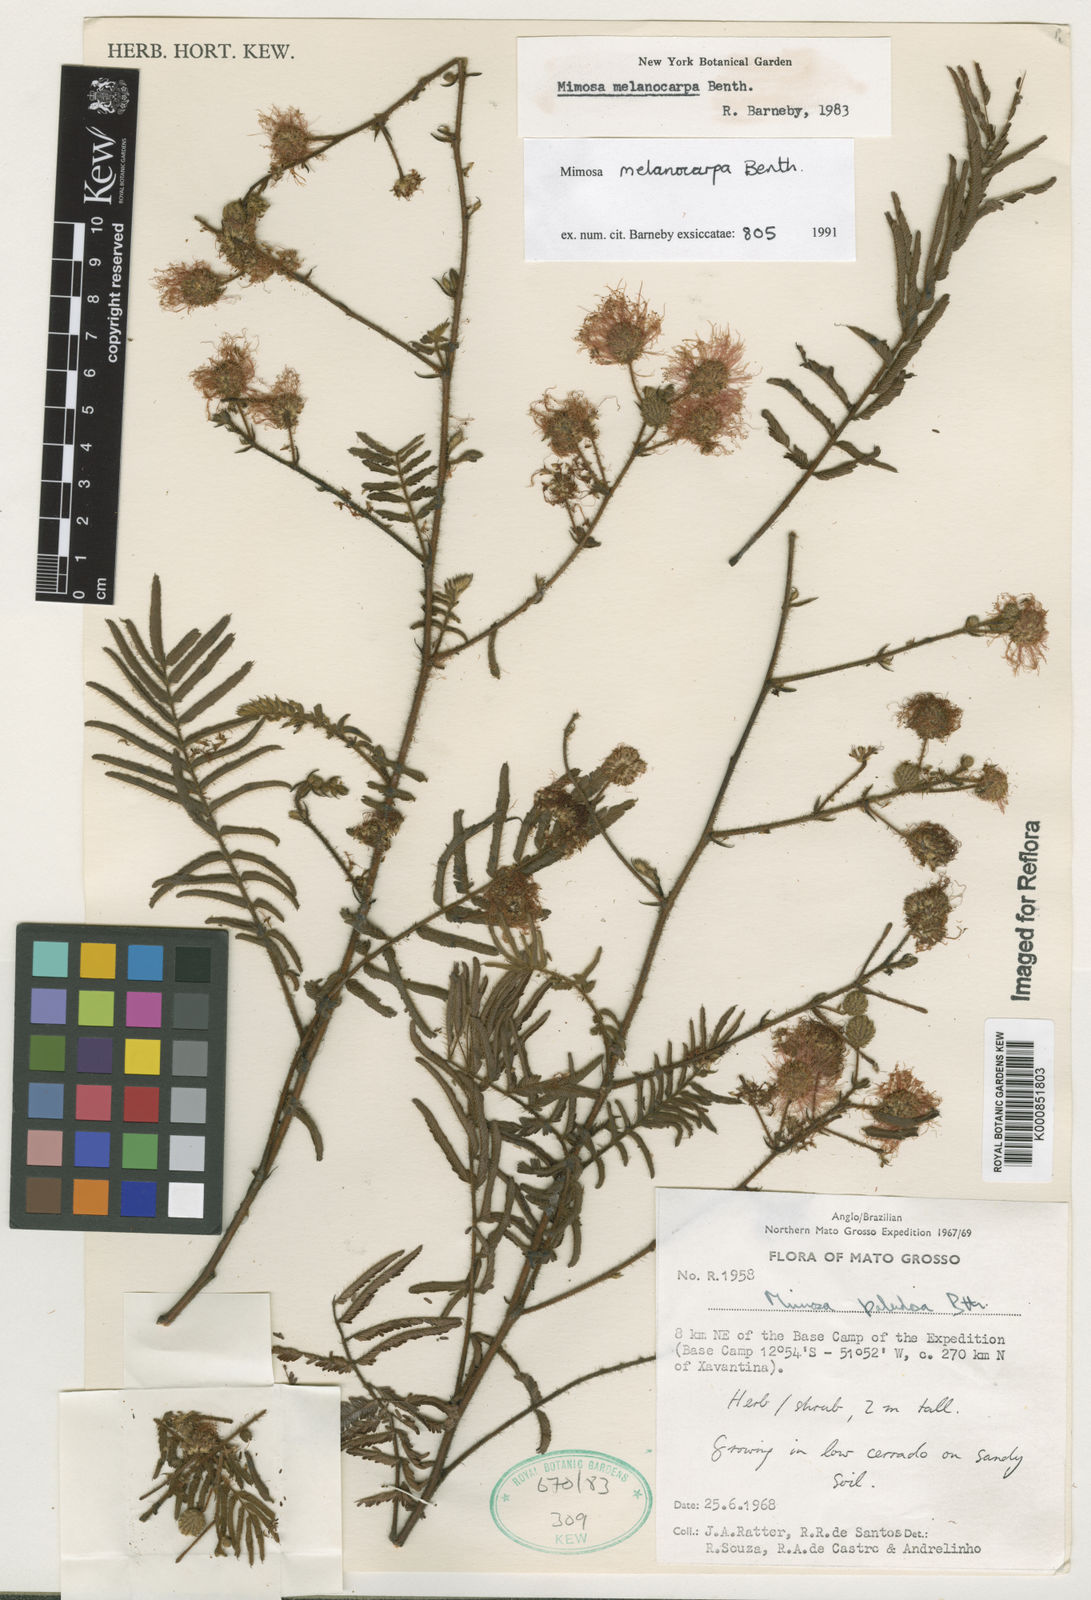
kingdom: Plantae
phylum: Tracheophyta
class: Magnoliopsida
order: Fabales
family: Fabaceae
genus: Mimosa
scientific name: Mimosa melanocarpa
